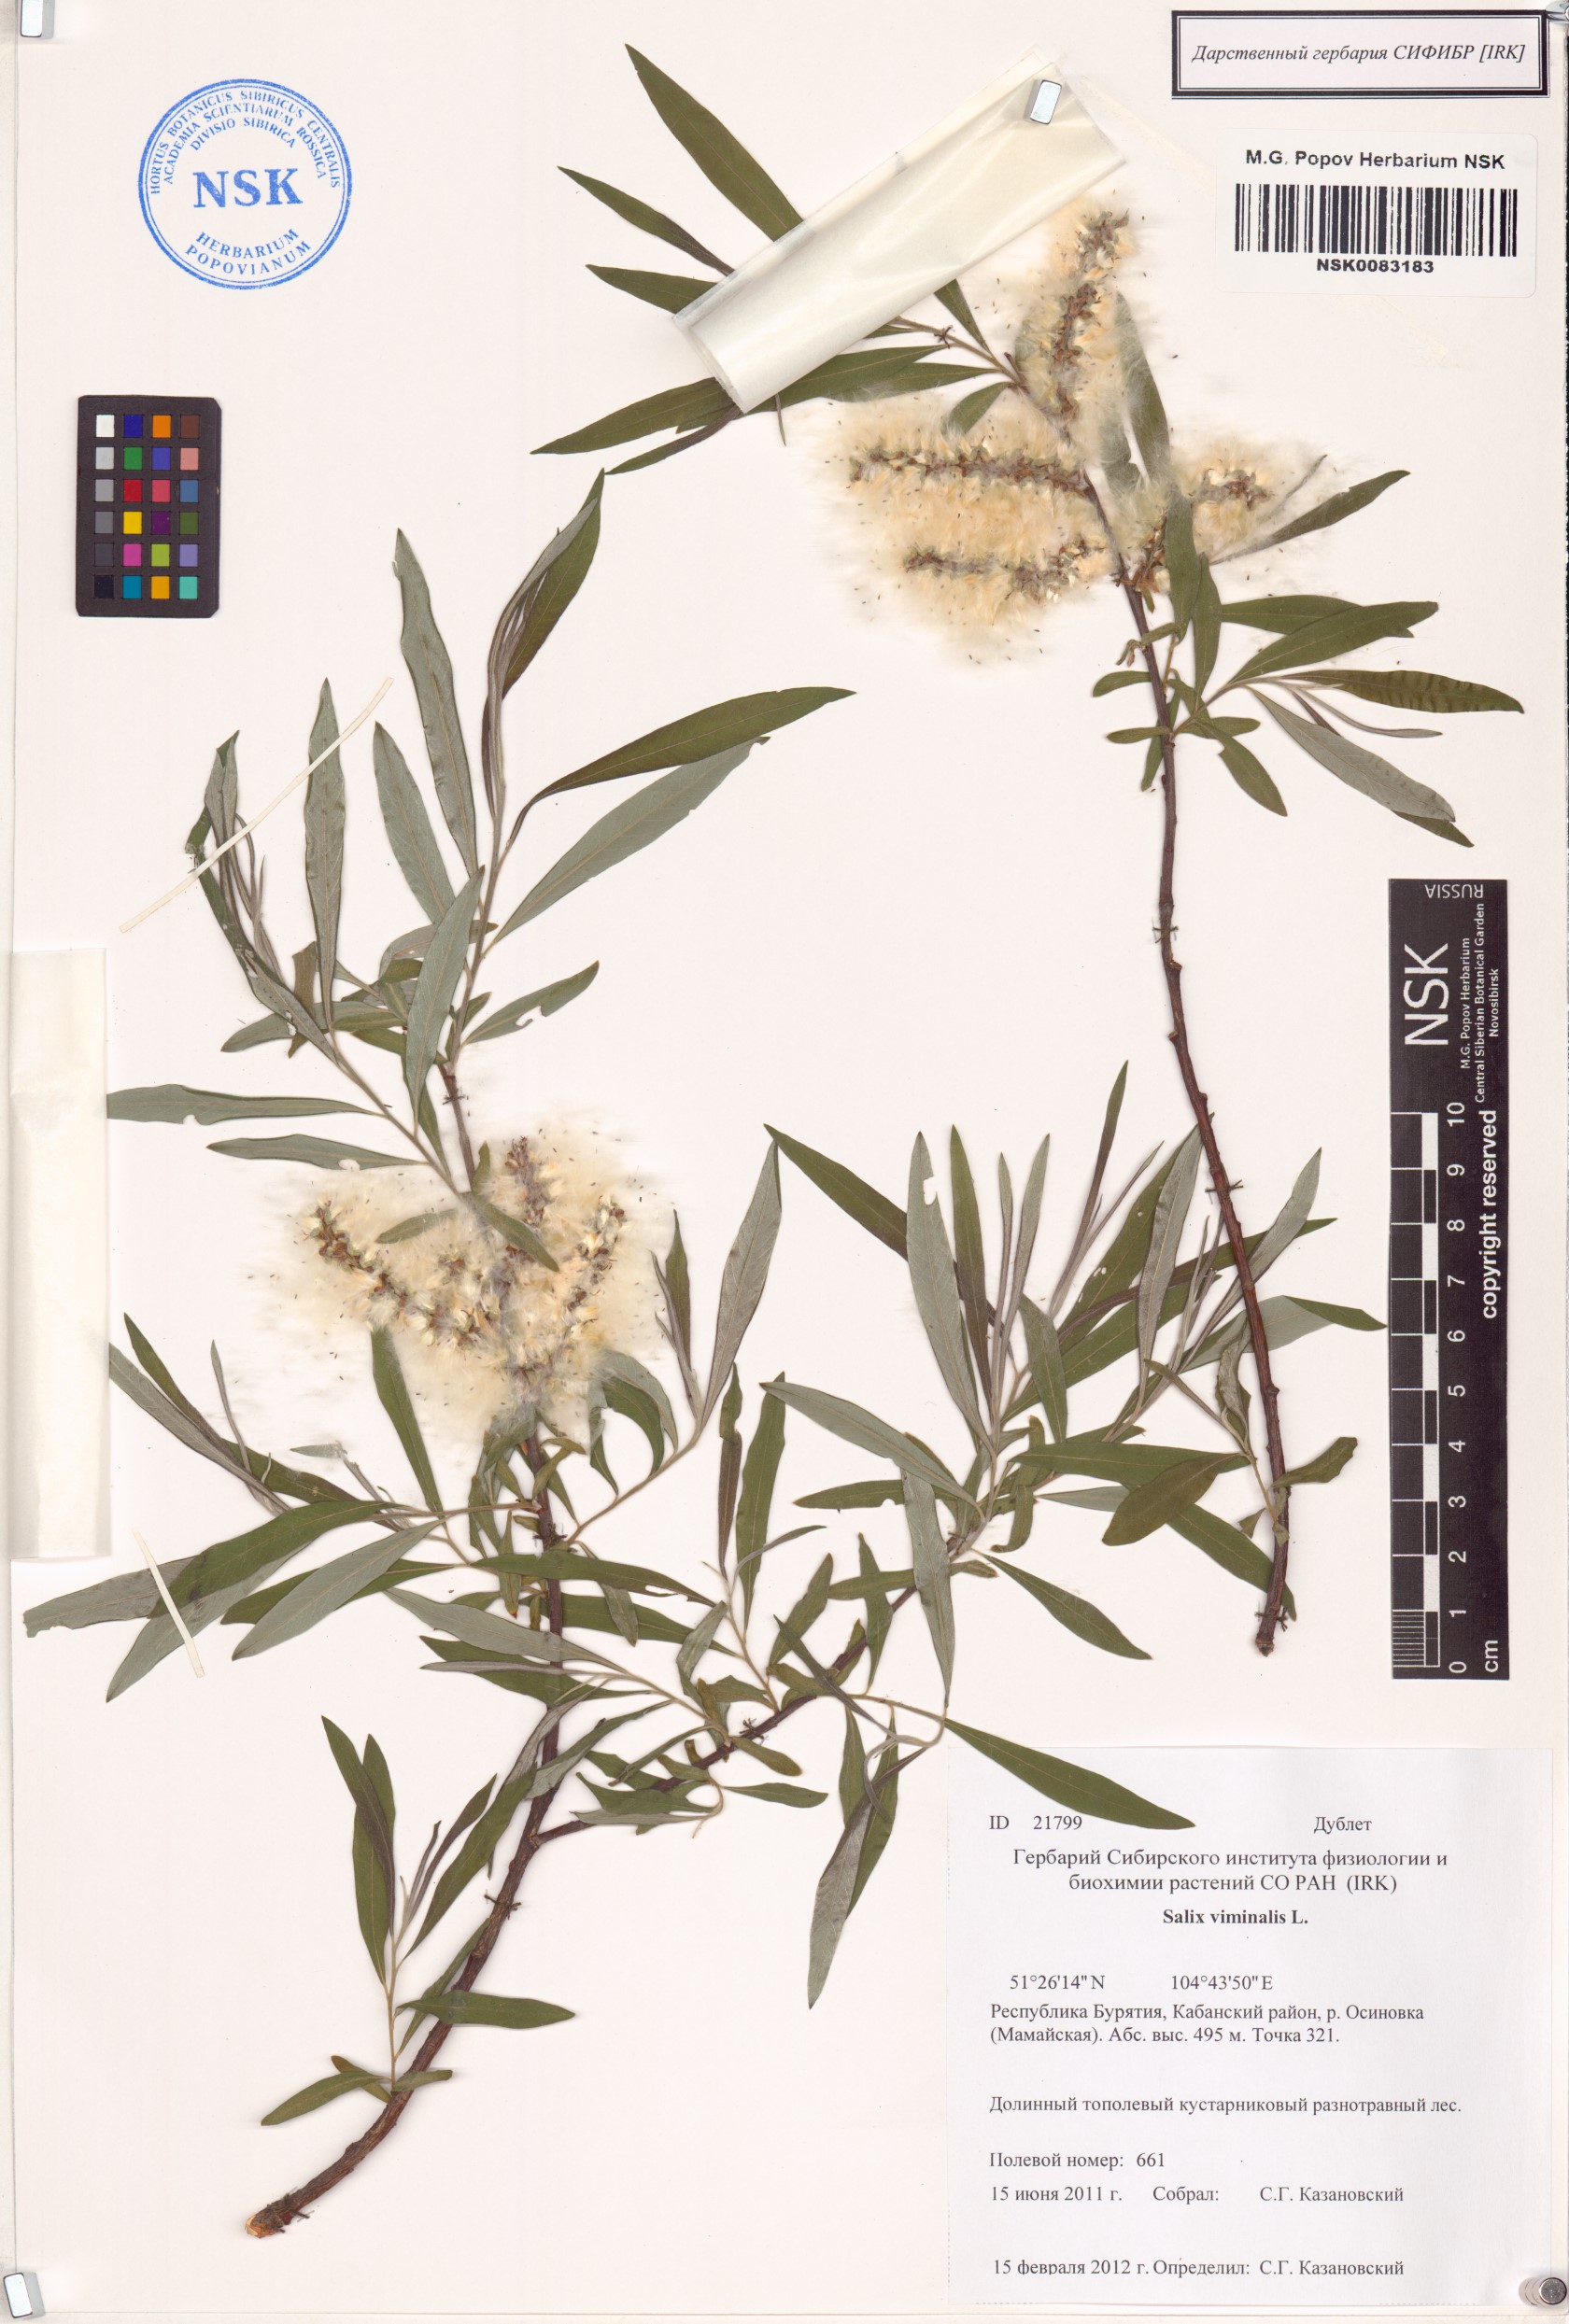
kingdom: Plantae
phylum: Tracheophyta
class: Magnoliopsida
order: Malpighiales
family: Salicaceae
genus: Salix
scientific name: Salix viminalis
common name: Osier
